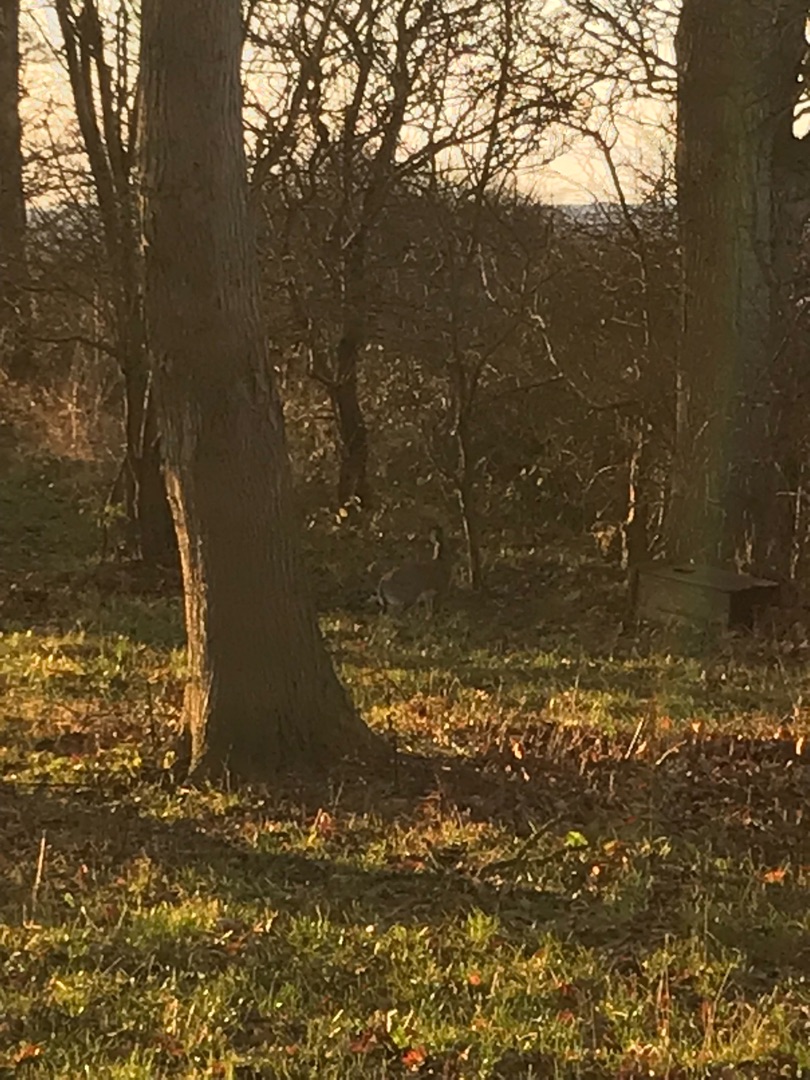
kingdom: Animalia
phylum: Chordata
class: Mammalia
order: Lagomorpha
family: Leporidae
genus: Lepus
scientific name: Lepus europaeus
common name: Hare
